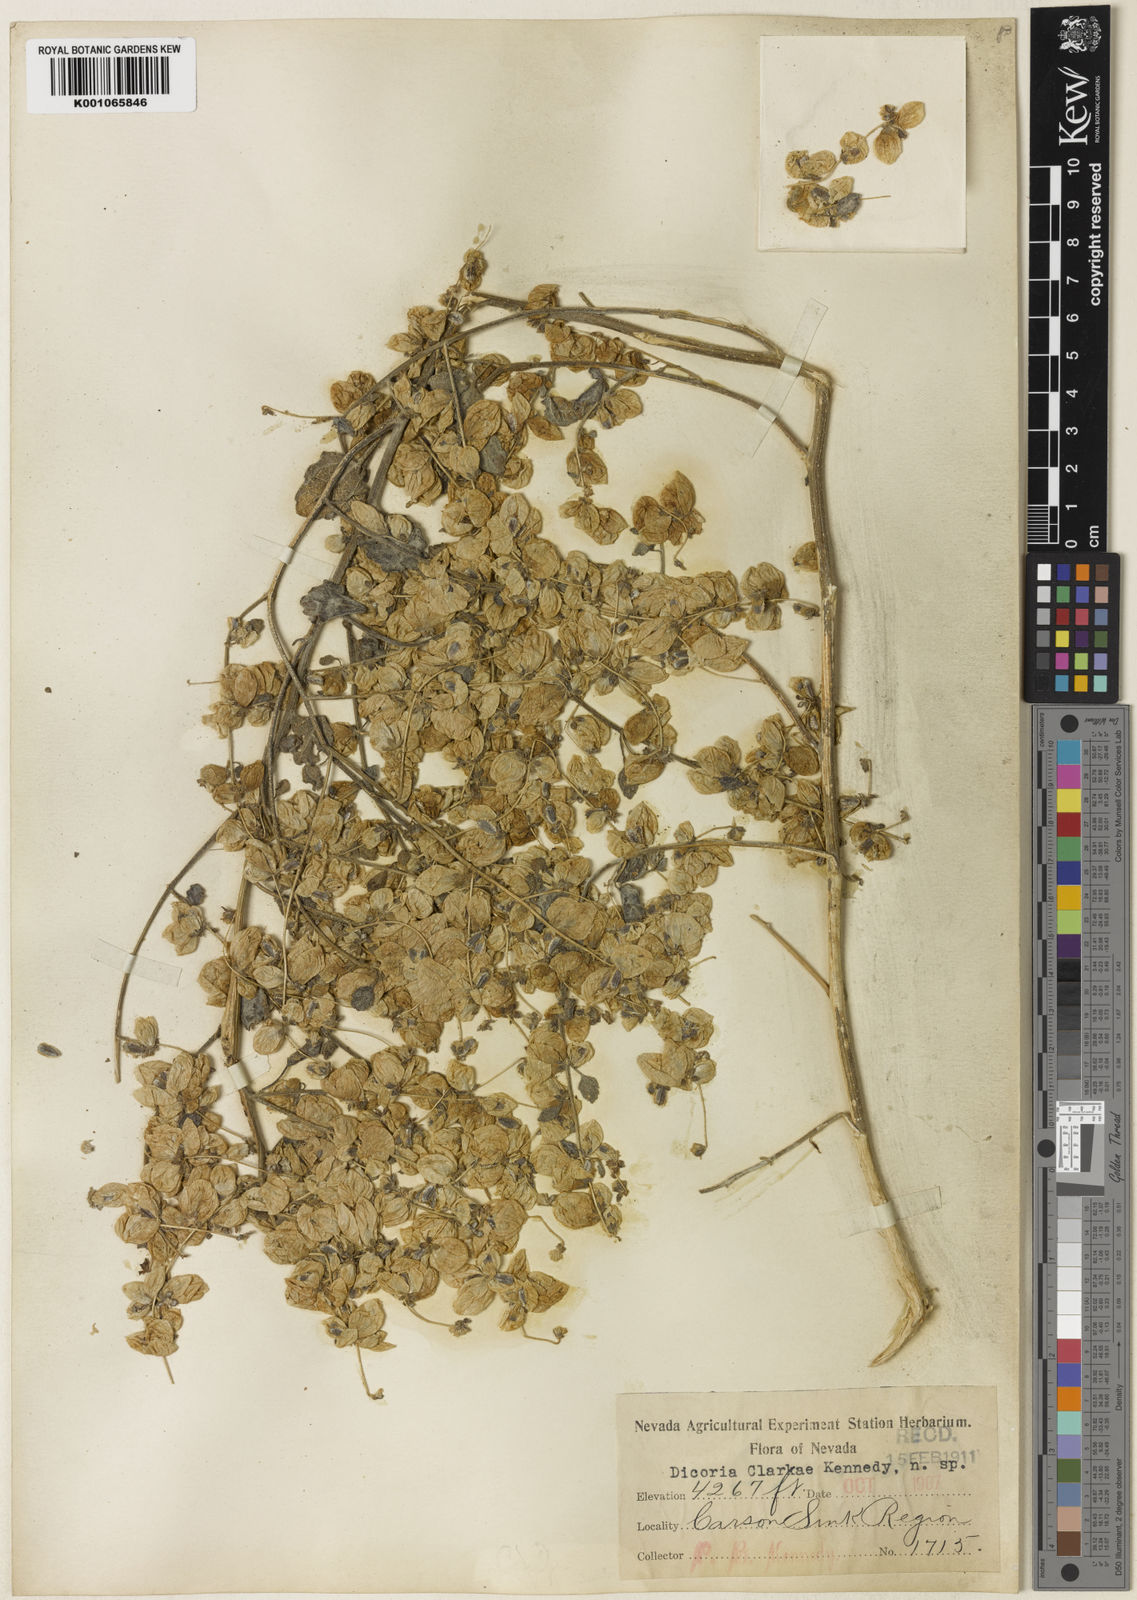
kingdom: Plantae
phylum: Tracheophyta
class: Magnoliopsida
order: Asterales
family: Asteraceae
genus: Dicoria
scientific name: Dicoria canescens
